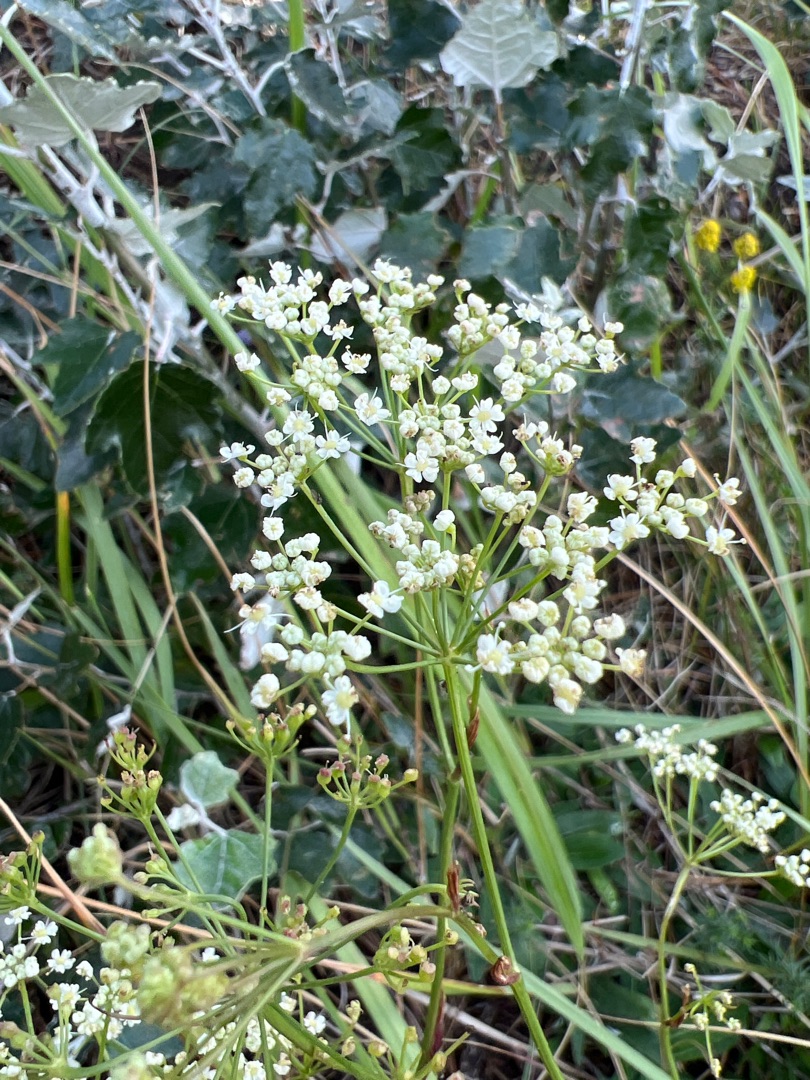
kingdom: Plantae
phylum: Tracheophyta
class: Magnoliopsida
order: Apiales
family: Apiaceae
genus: Pimpinella
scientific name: Pimpinella saxifraga
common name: Almindelig pimpinelle
